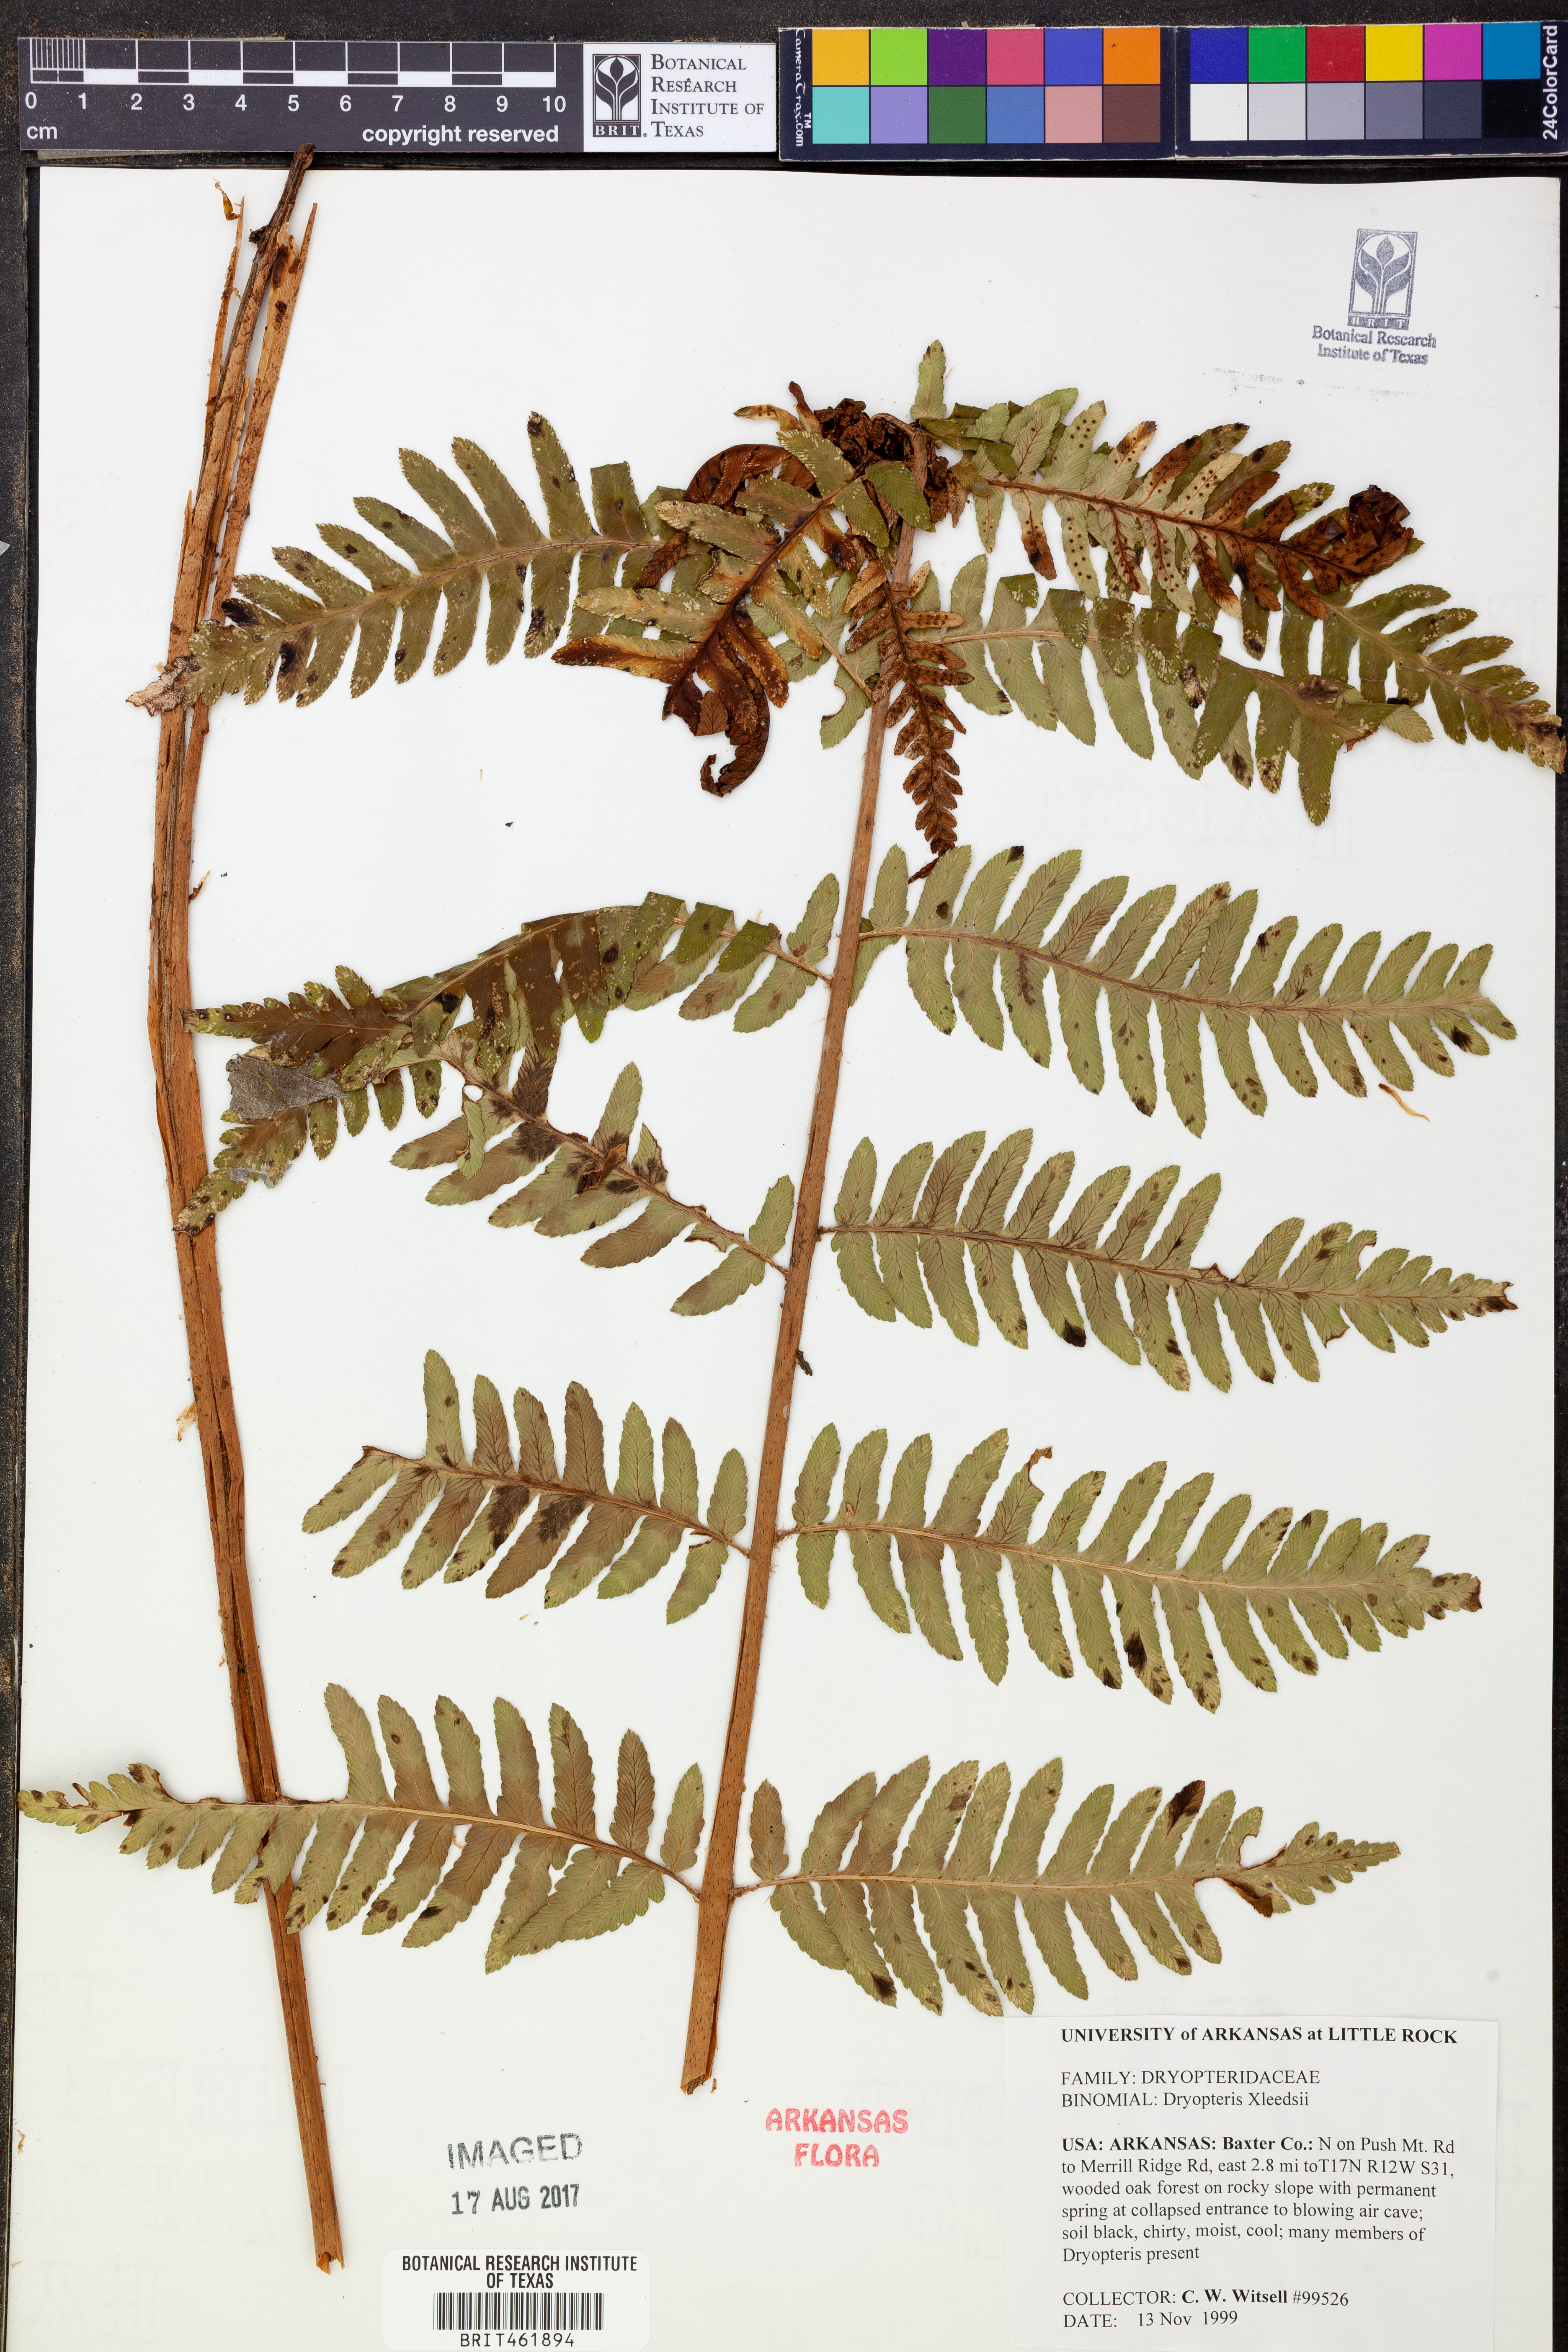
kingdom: Plantae
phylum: Tracheophyta
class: Polypodiopsida
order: Polypodiales
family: Dryopteridaceae
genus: Dryopteris
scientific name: Dryopteris
